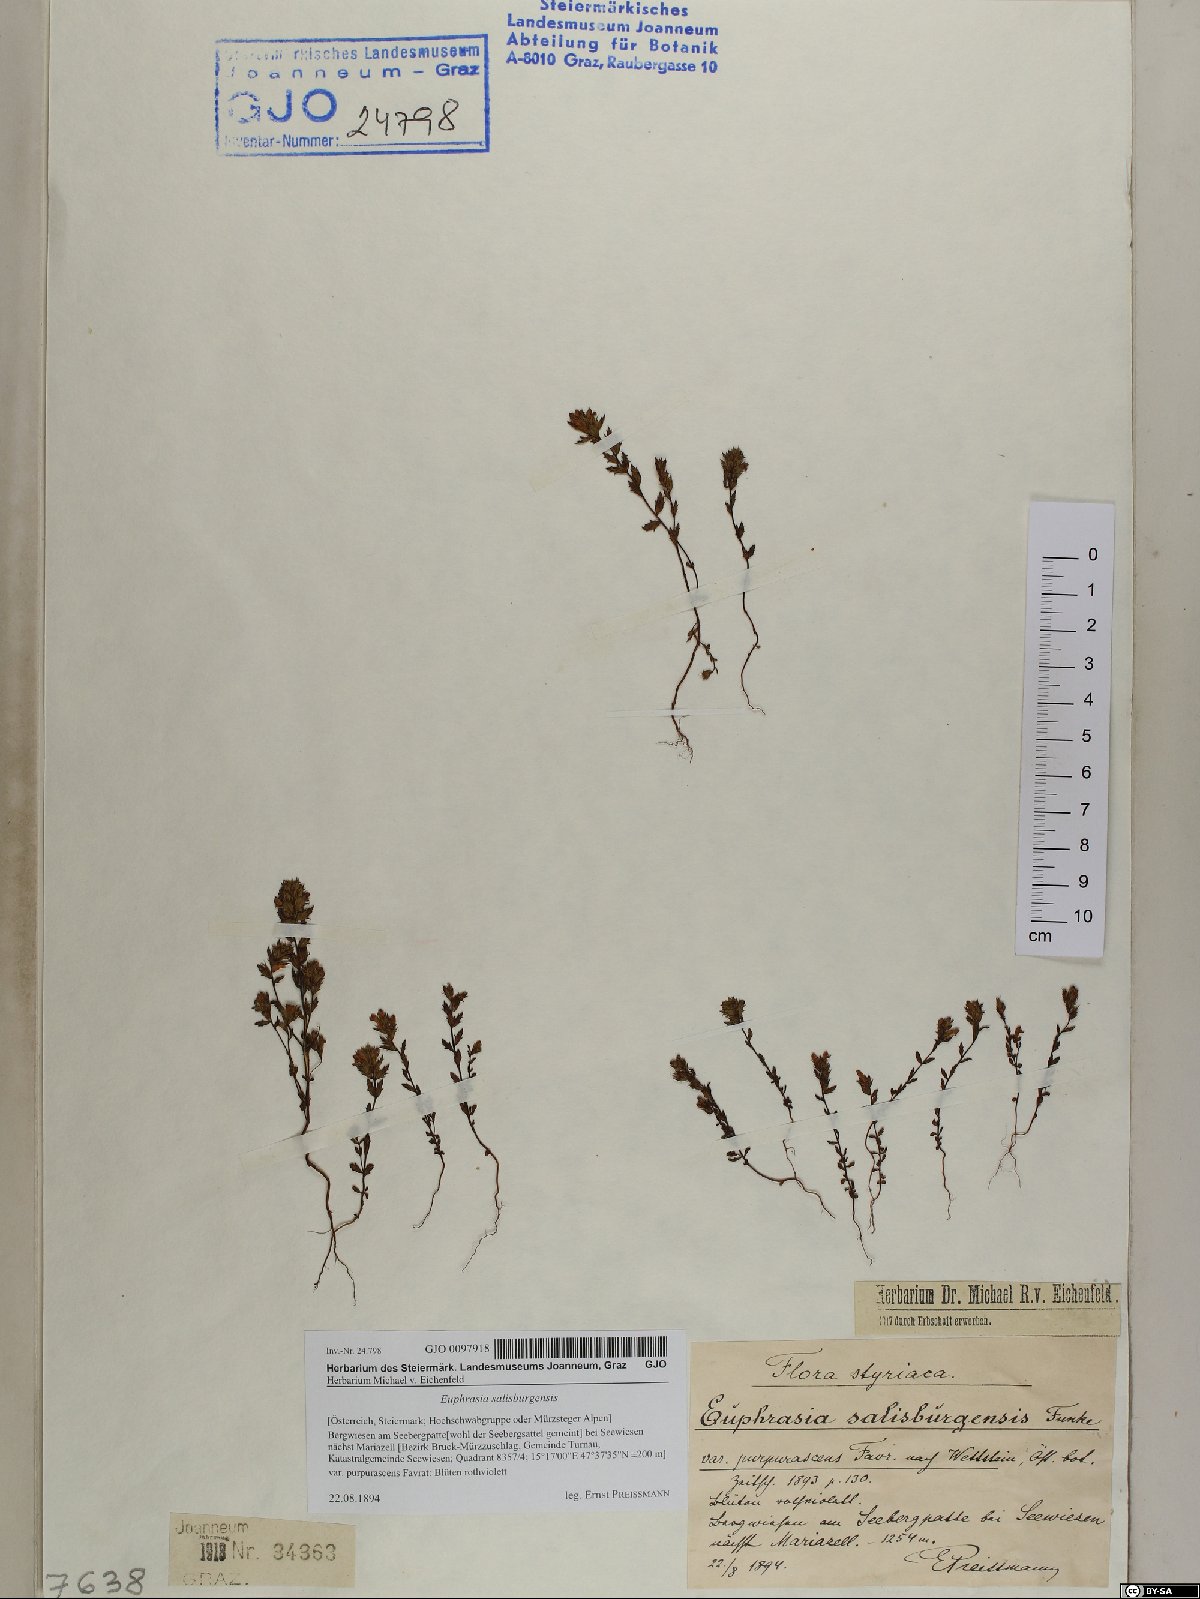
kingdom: Plantae
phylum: Tracheophyta
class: Magnoliopsida
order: Lamiales
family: Orobanchaceae
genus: Euphrasia
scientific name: Euphrasia salisburgensis
